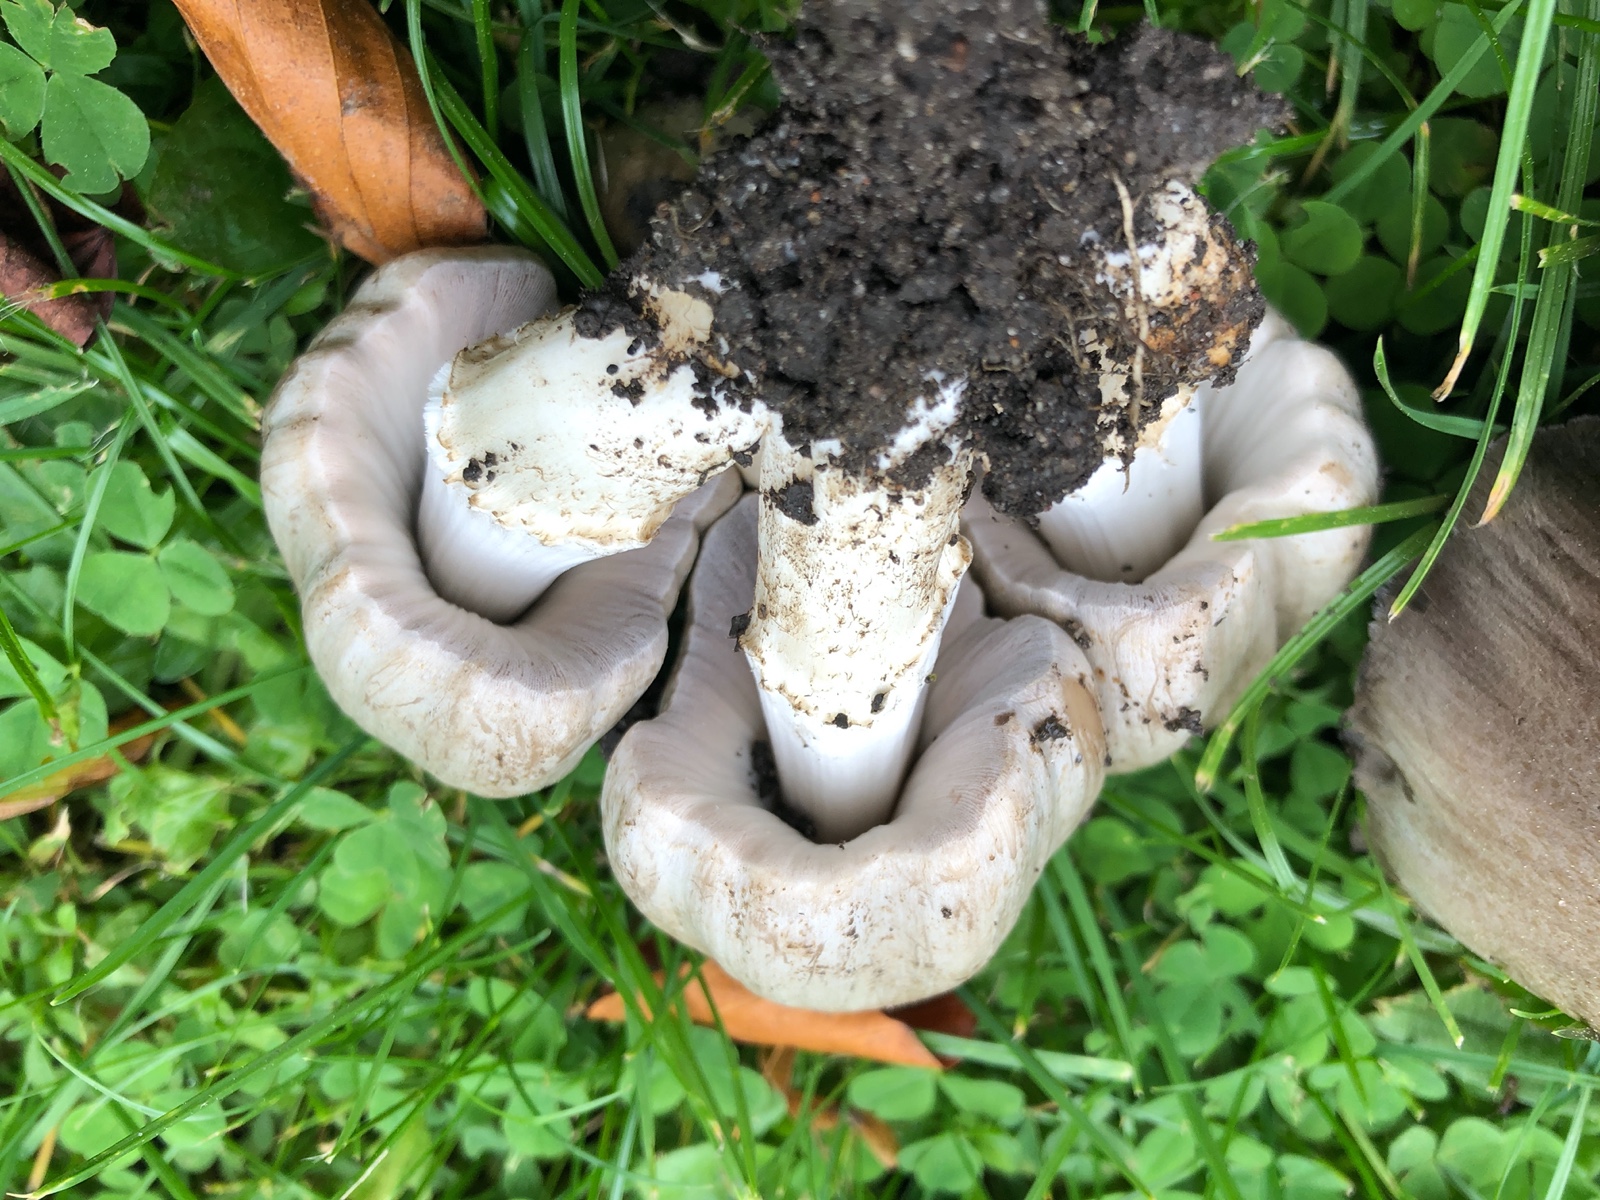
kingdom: Fungi
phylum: Basidiomycota
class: Agaricomycetes
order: Agaricales
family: Psathyrellaceae
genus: Coprinopsis
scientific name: Coprinopsis atramentaria
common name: almindelig blækhat
